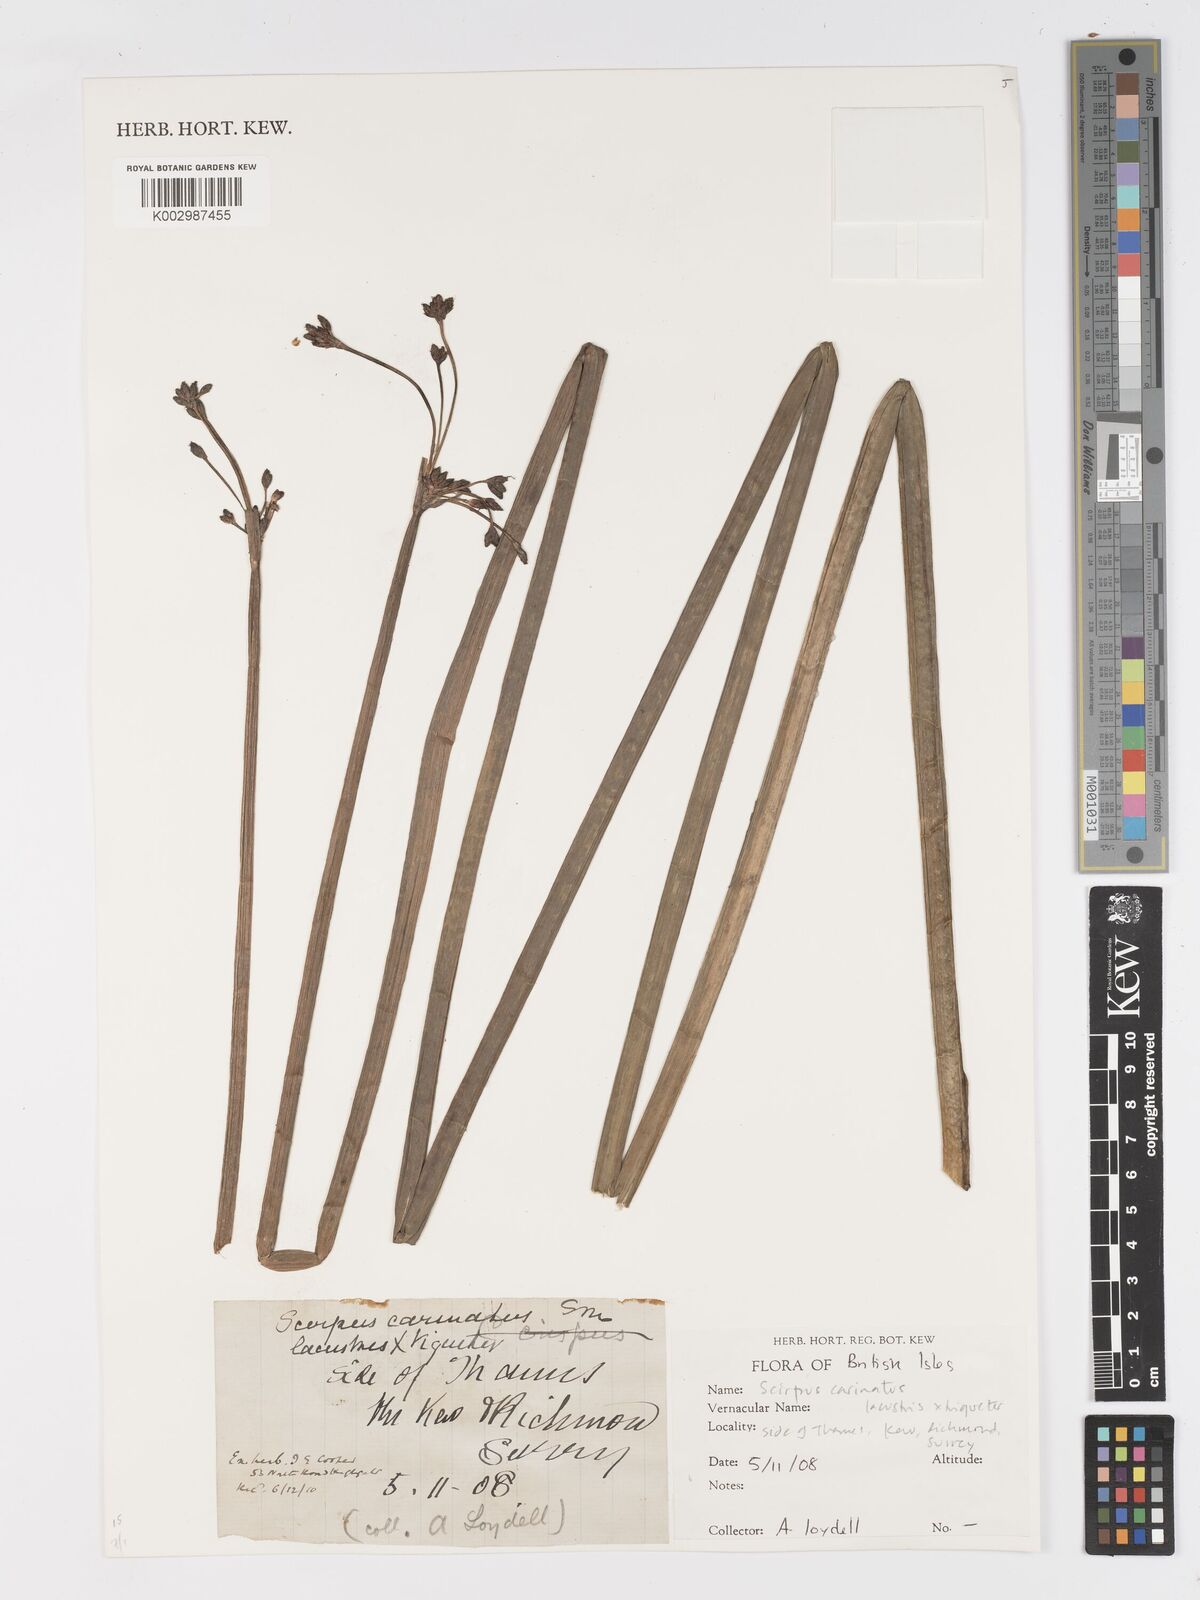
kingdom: Plantae
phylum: Tracheophyta
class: Liliopsida
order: Poales
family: Cyperaceae
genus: Schoenoplectus
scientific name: Schoenoplectus carinatus
